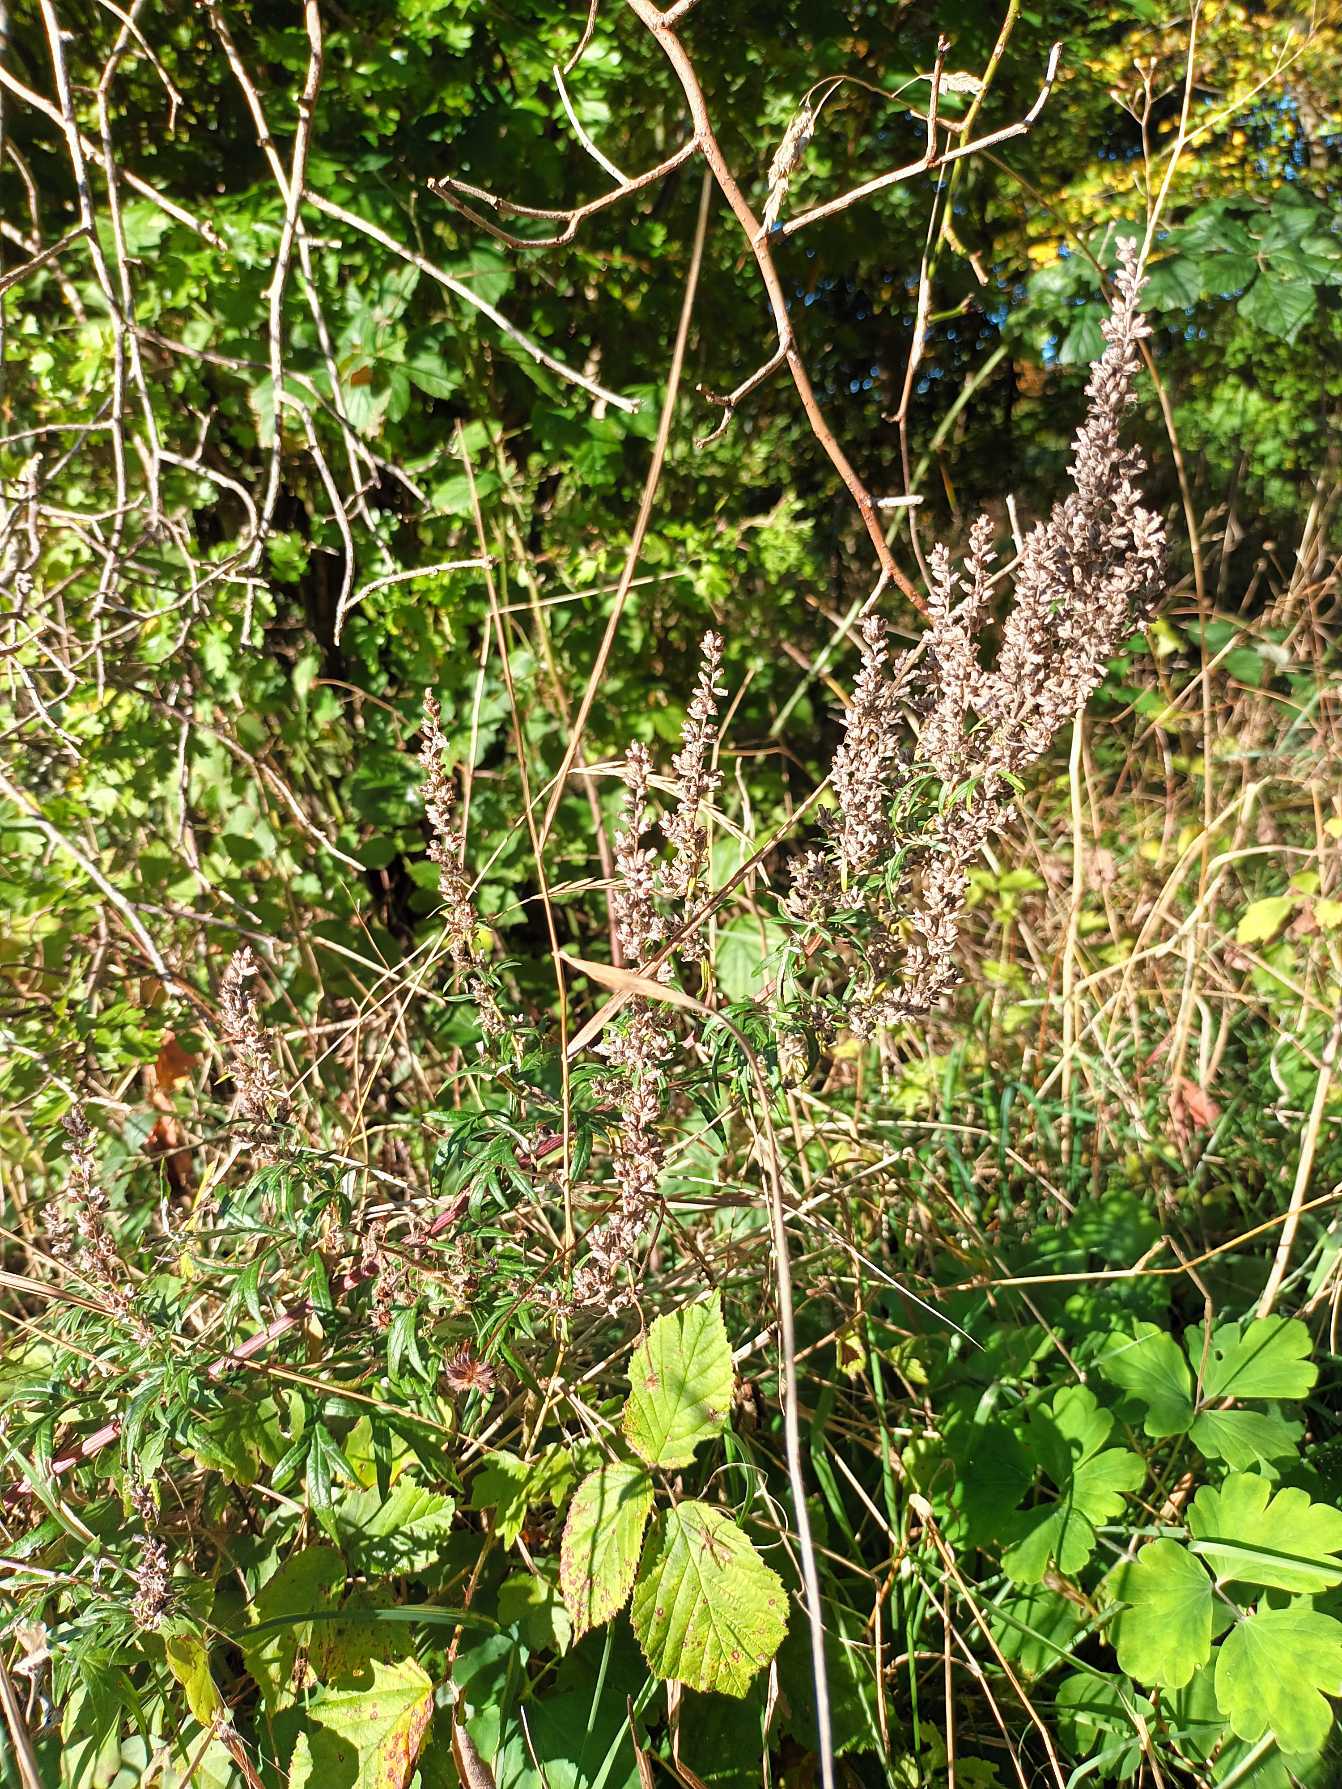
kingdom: Plantae
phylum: Tracheophyta
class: Magnoliopsida
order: Asterales
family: Asteraceae
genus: Artemisia
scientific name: Artemisia vulgaris
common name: Grå-bynke
